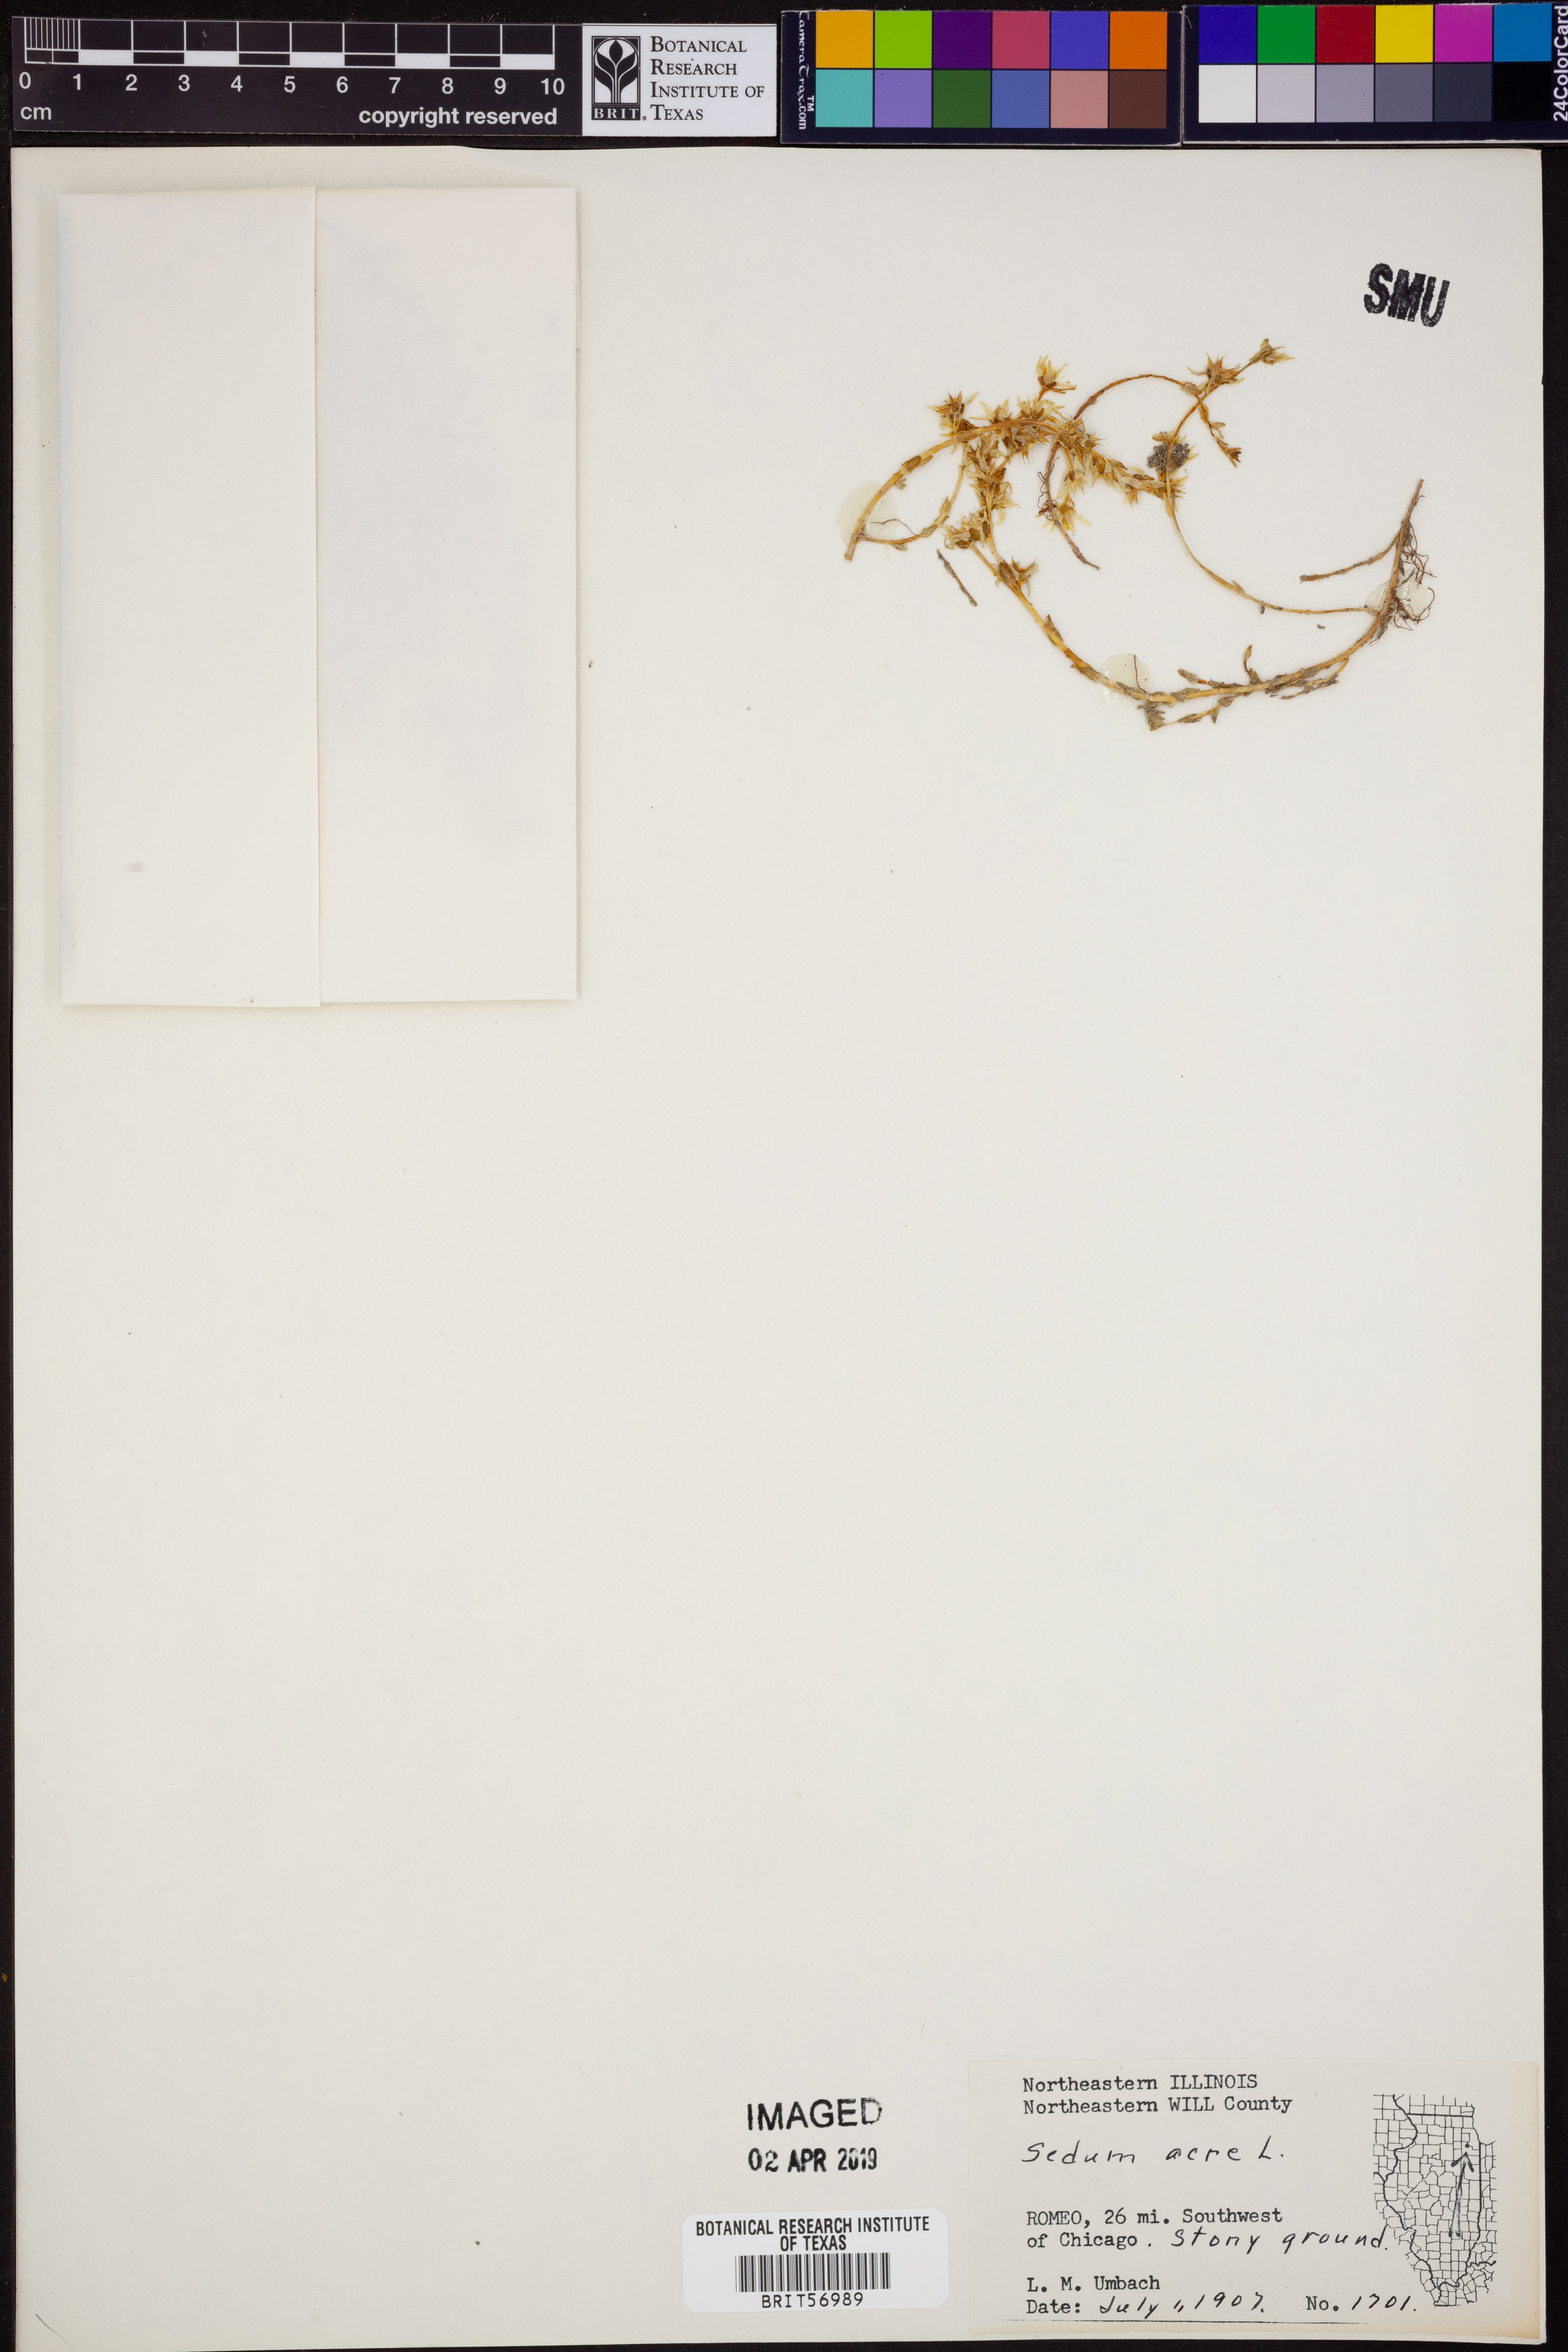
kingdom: Plantae
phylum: Tracheophyta
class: Magnoliopsida
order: Saxifragales
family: Crassulaceae
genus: Sedum
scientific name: Sedum acre
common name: Biting stonecrop
